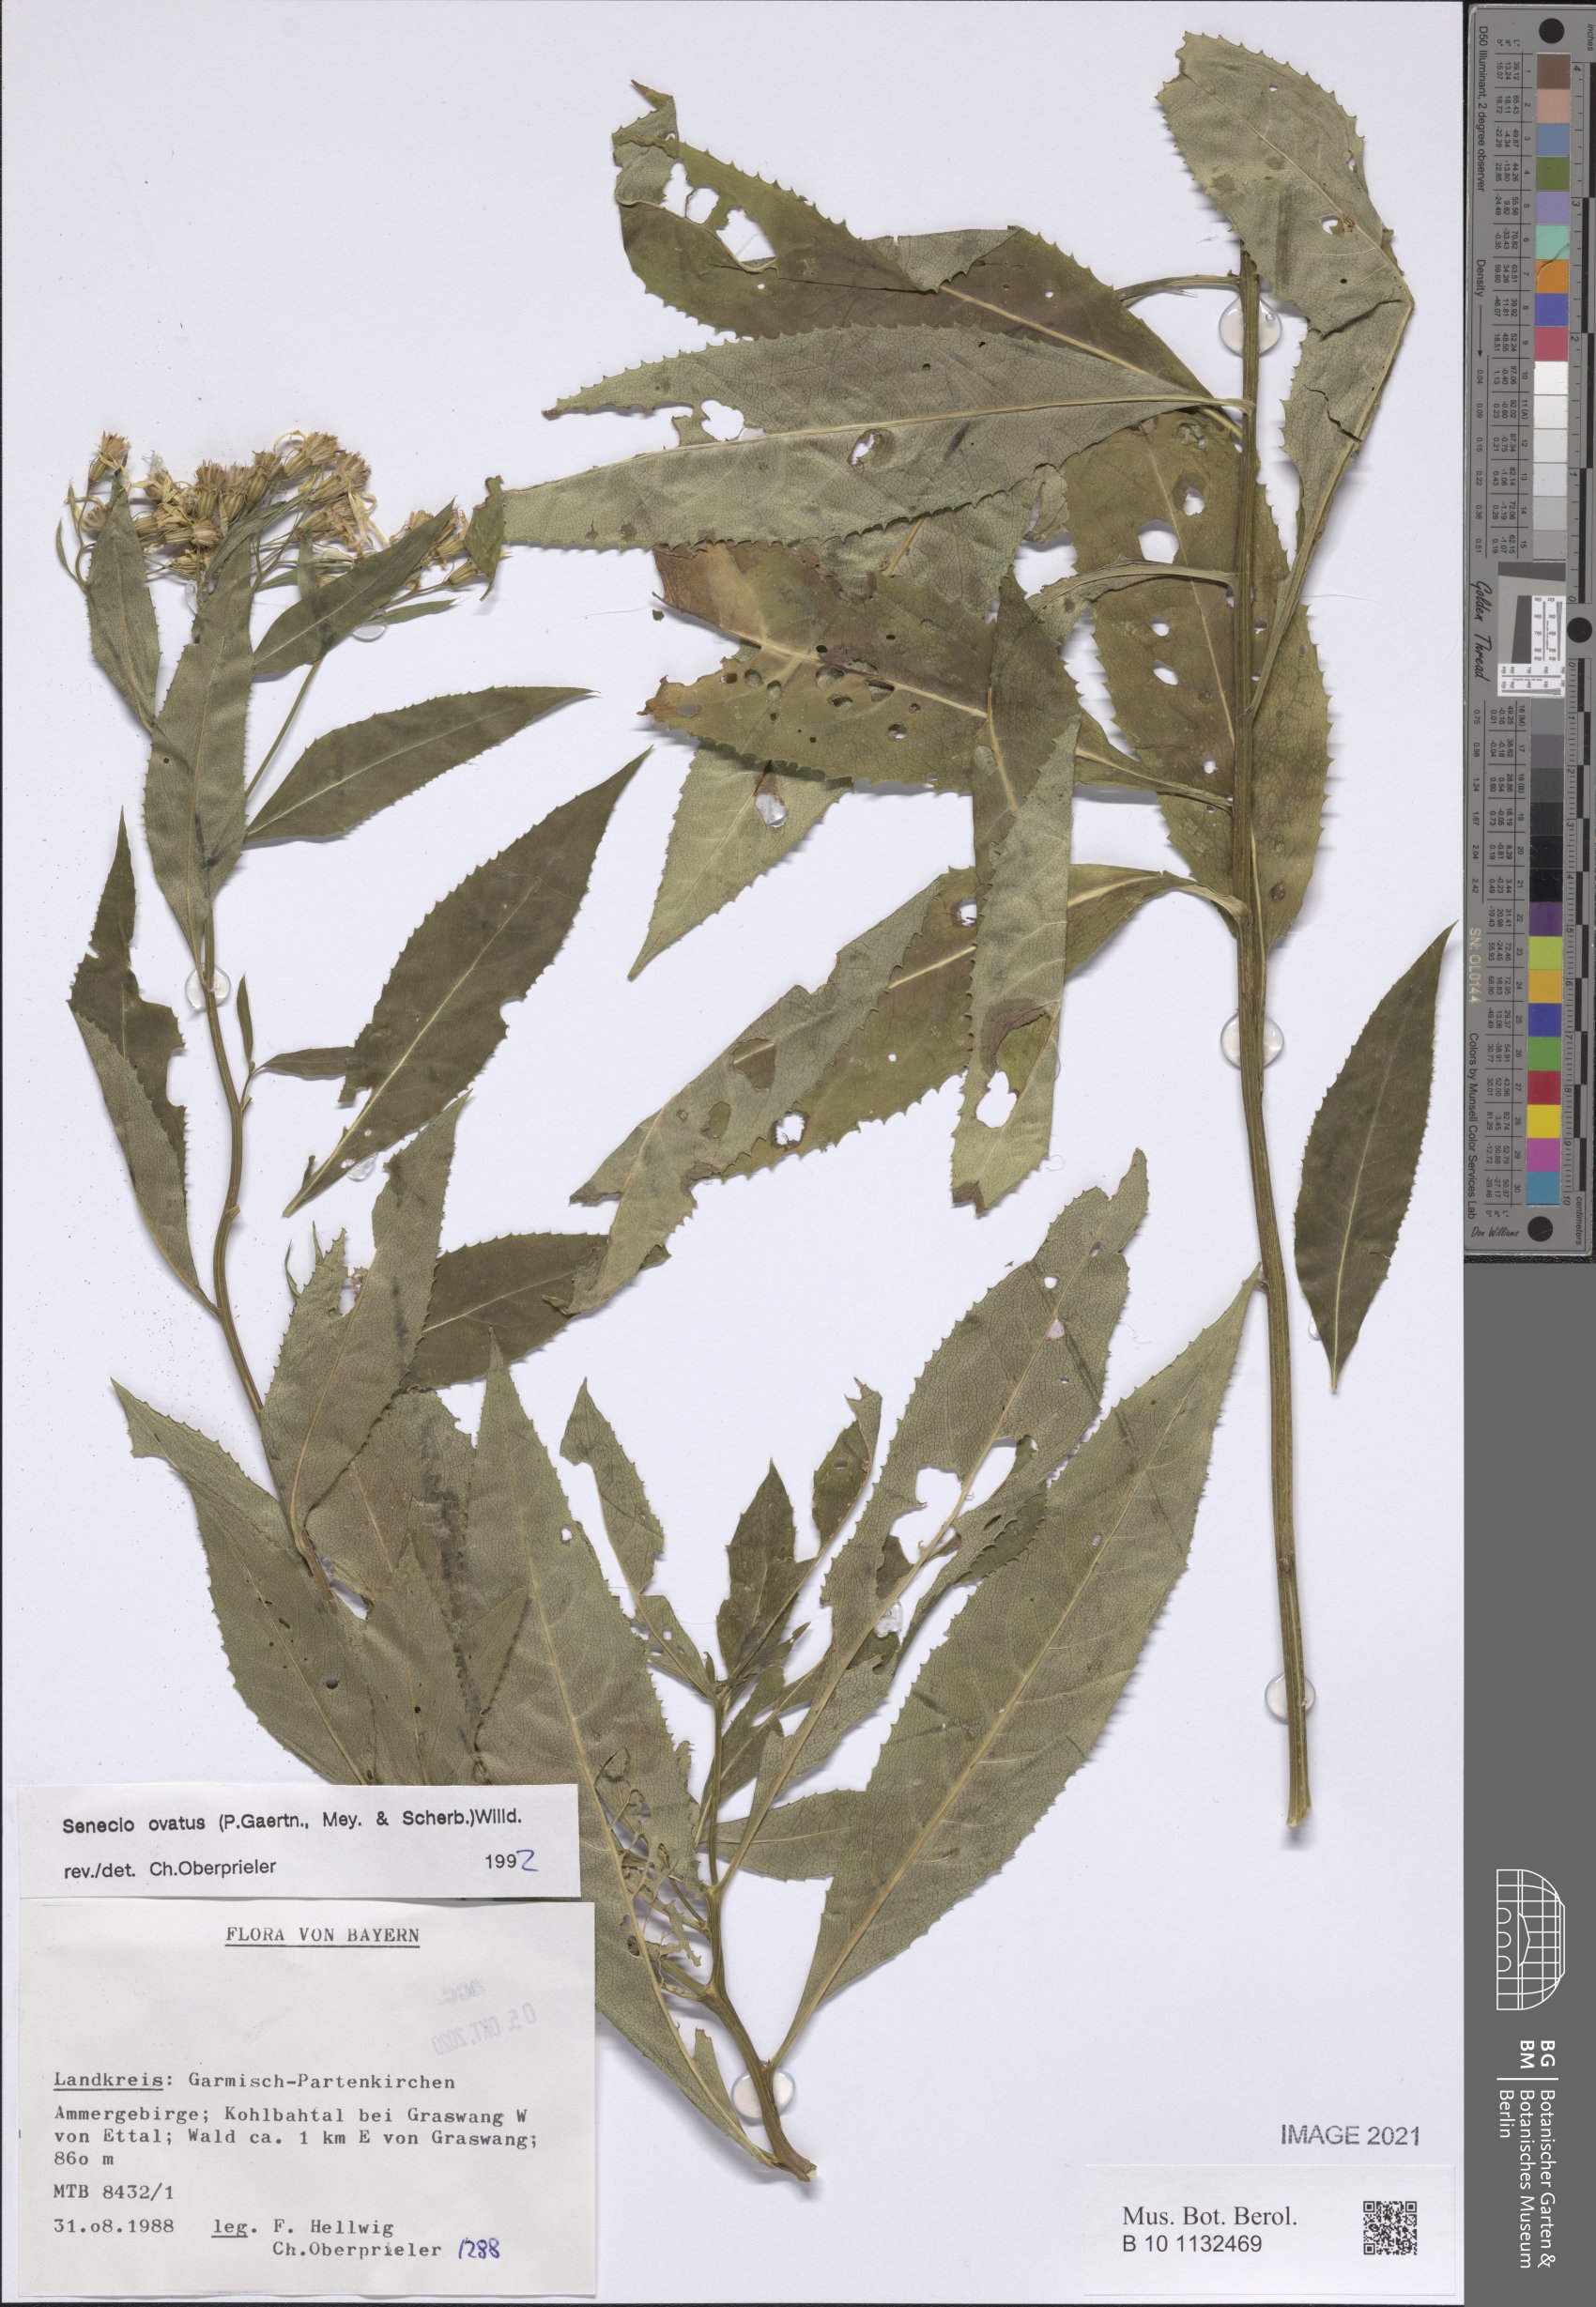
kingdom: Plantae
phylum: Tracheophyta
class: Magnoliopsida
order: Asterales
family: Asteraceae
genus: Senecio
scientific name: Senecio ovatus
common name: Wood ragwort
